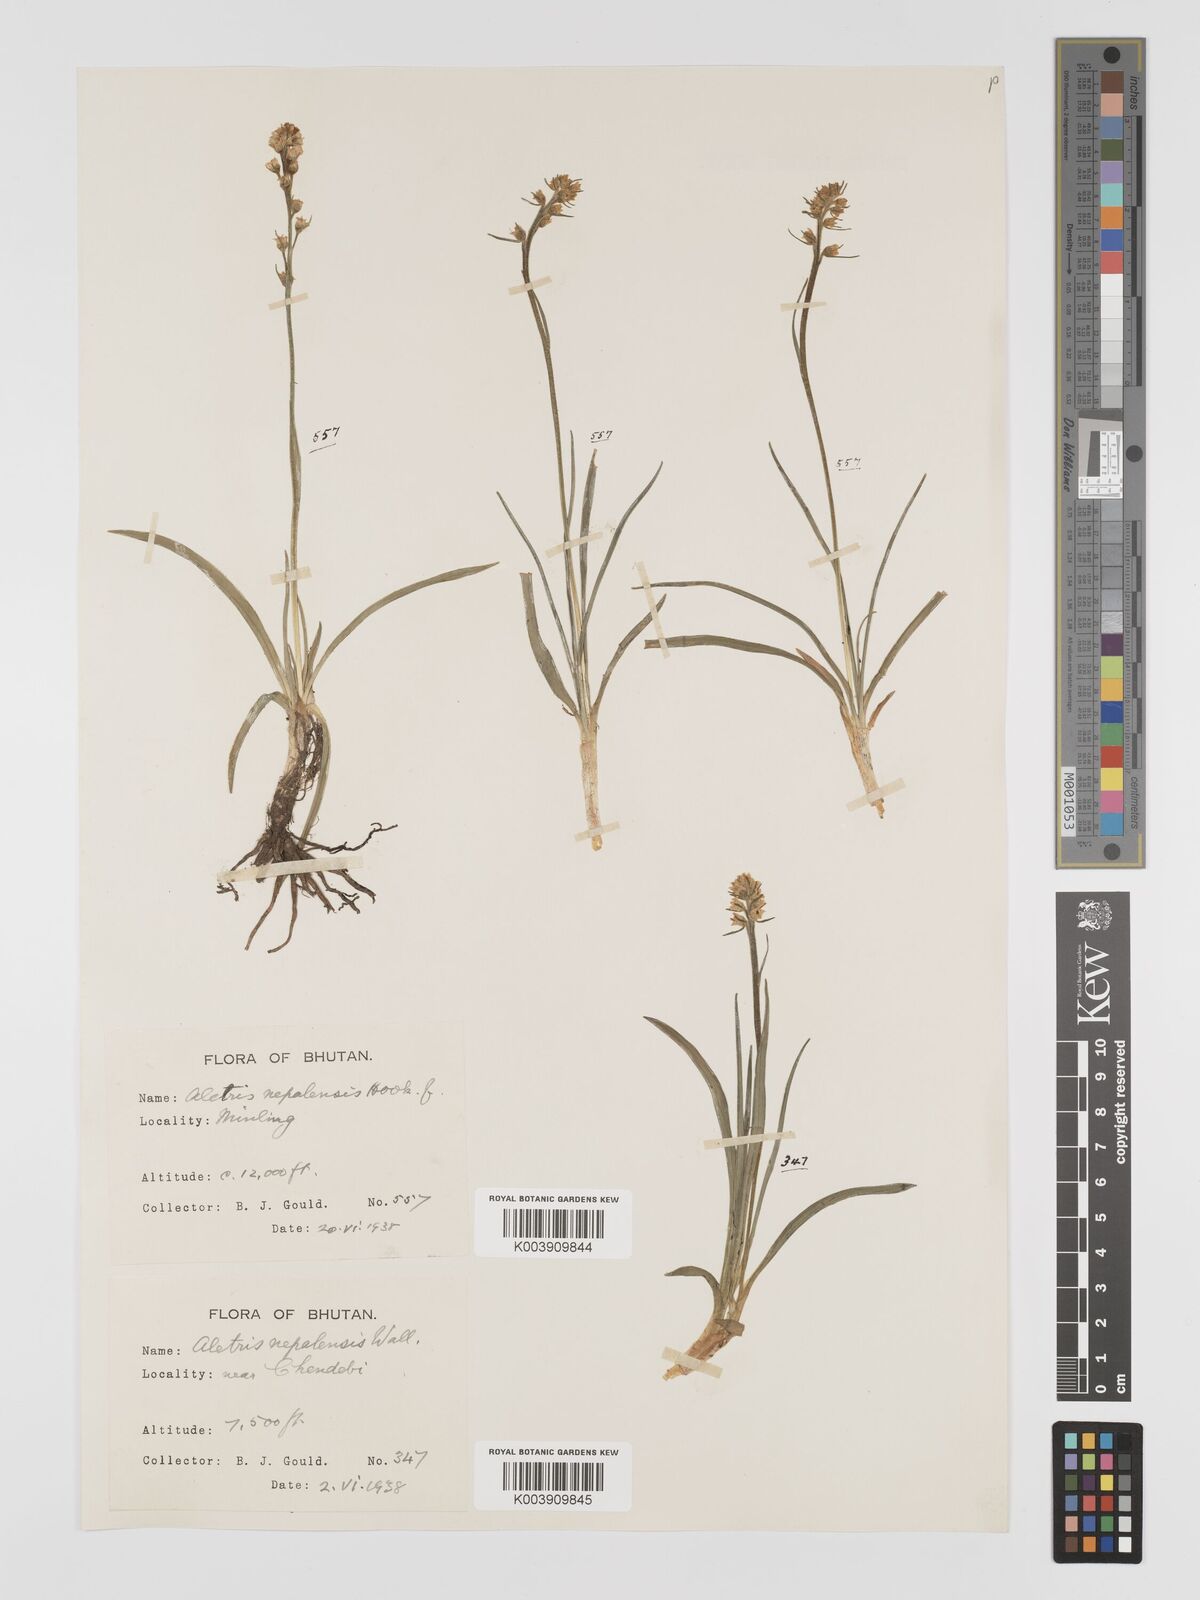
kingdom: Plantae
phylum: Tracheophyta
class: Liliopsida
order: Dioscoreales
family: Nartheciaceae
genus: Aletris
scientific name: Aletris pauciflora
